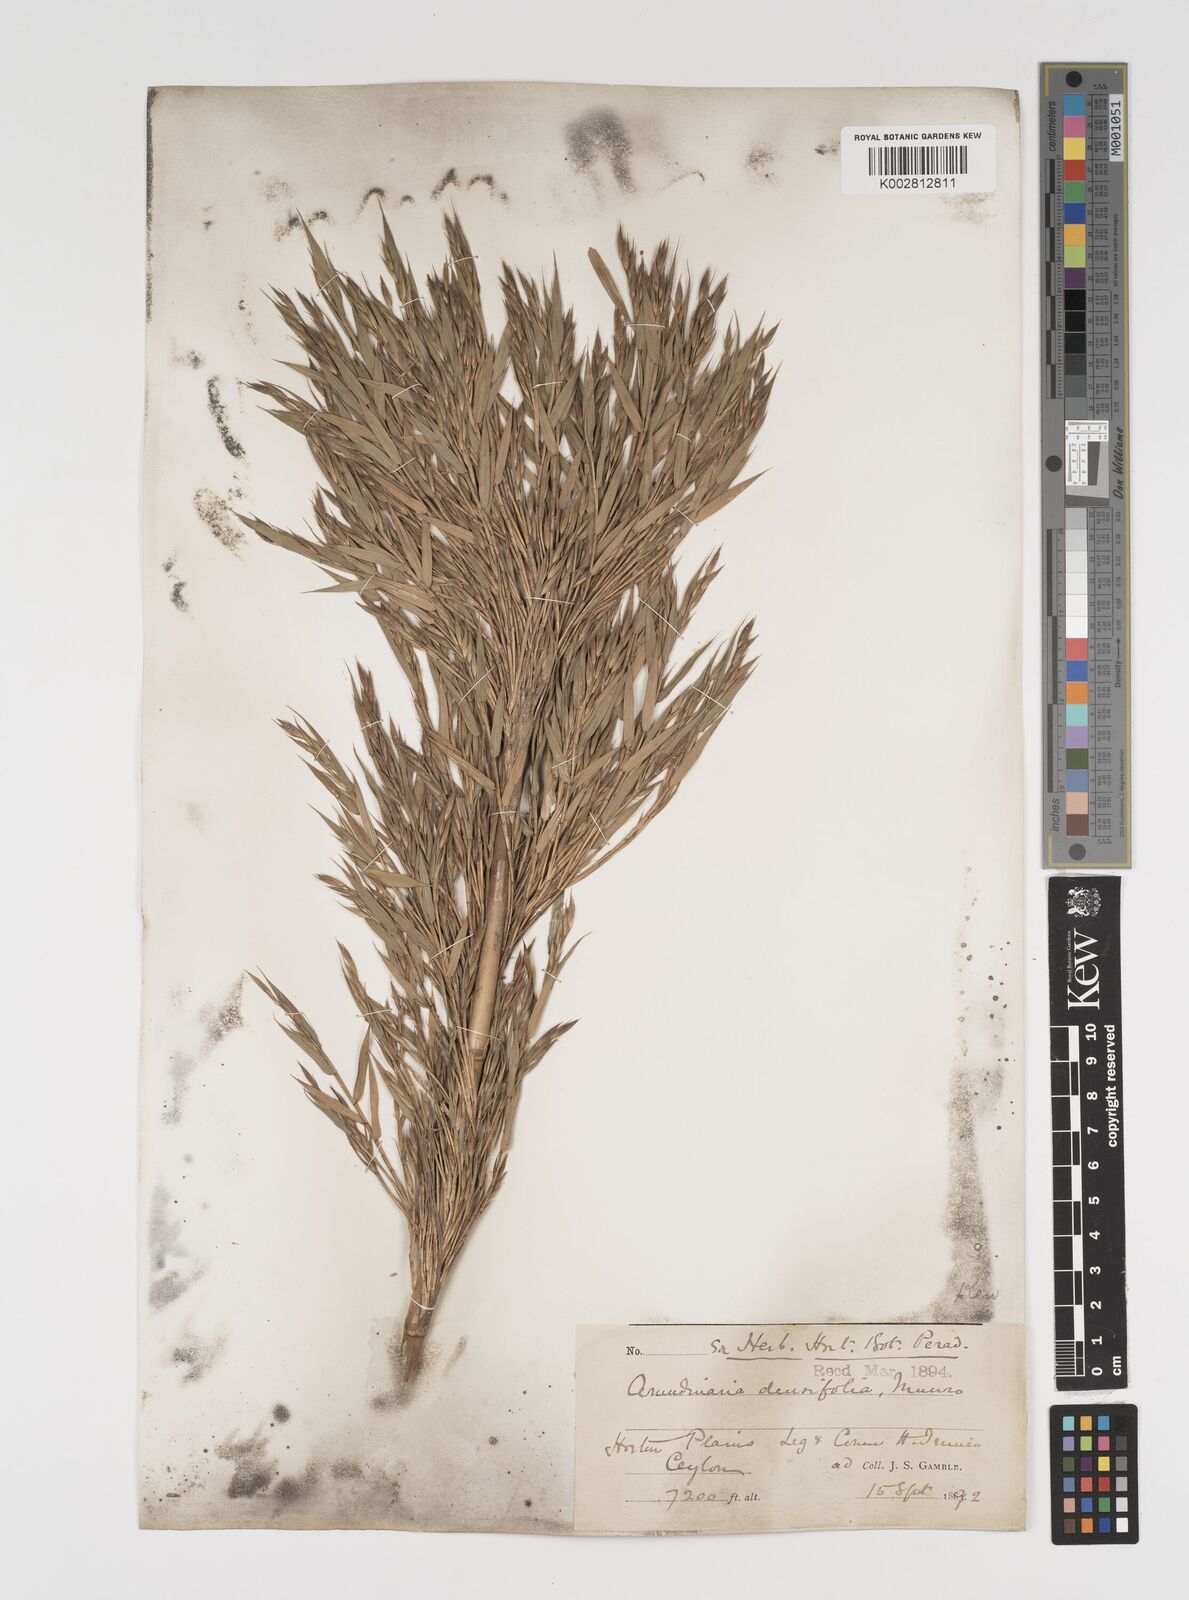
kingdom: Plantae
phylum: Tracheophyta
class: Liliopsida
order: Poales
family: Poaceae
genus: Kuruna
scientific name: Kuruna densifolia
